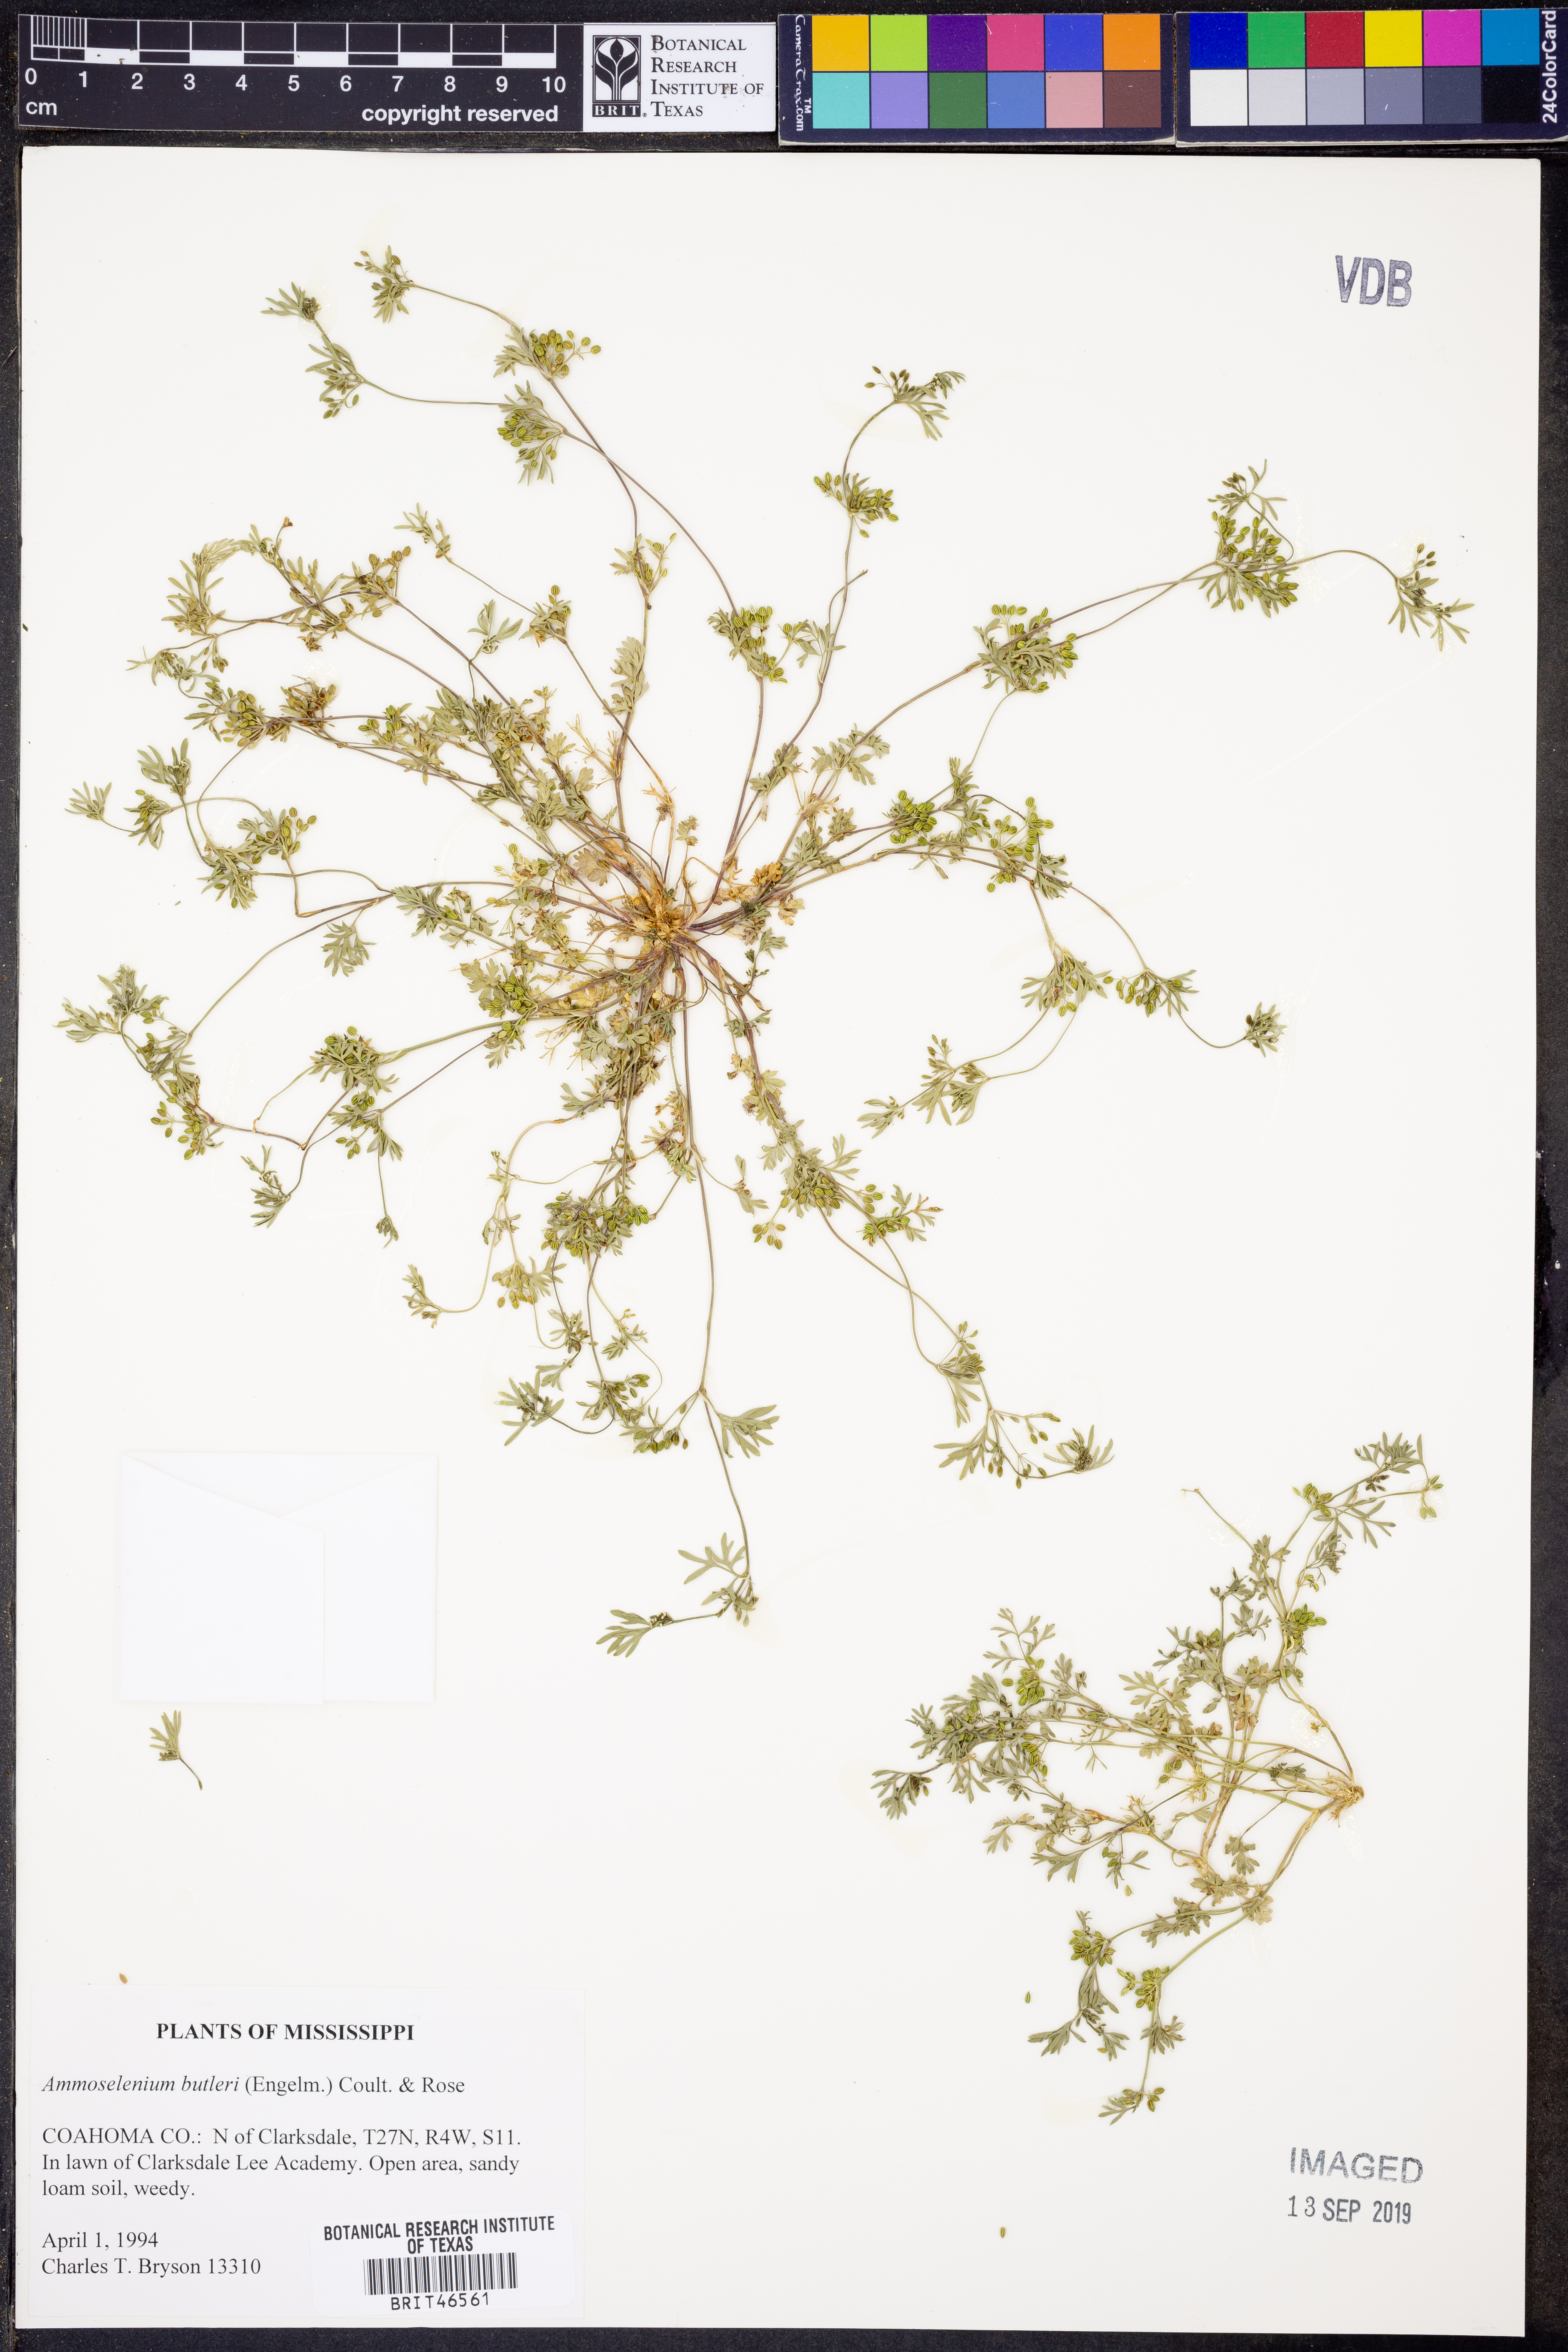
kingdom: Plantae
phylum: Tracheophyta
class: Magnoliopsida
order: Apiales
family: Apiaceae
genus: Ammoselinum
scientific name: Ammoselinum butleri
